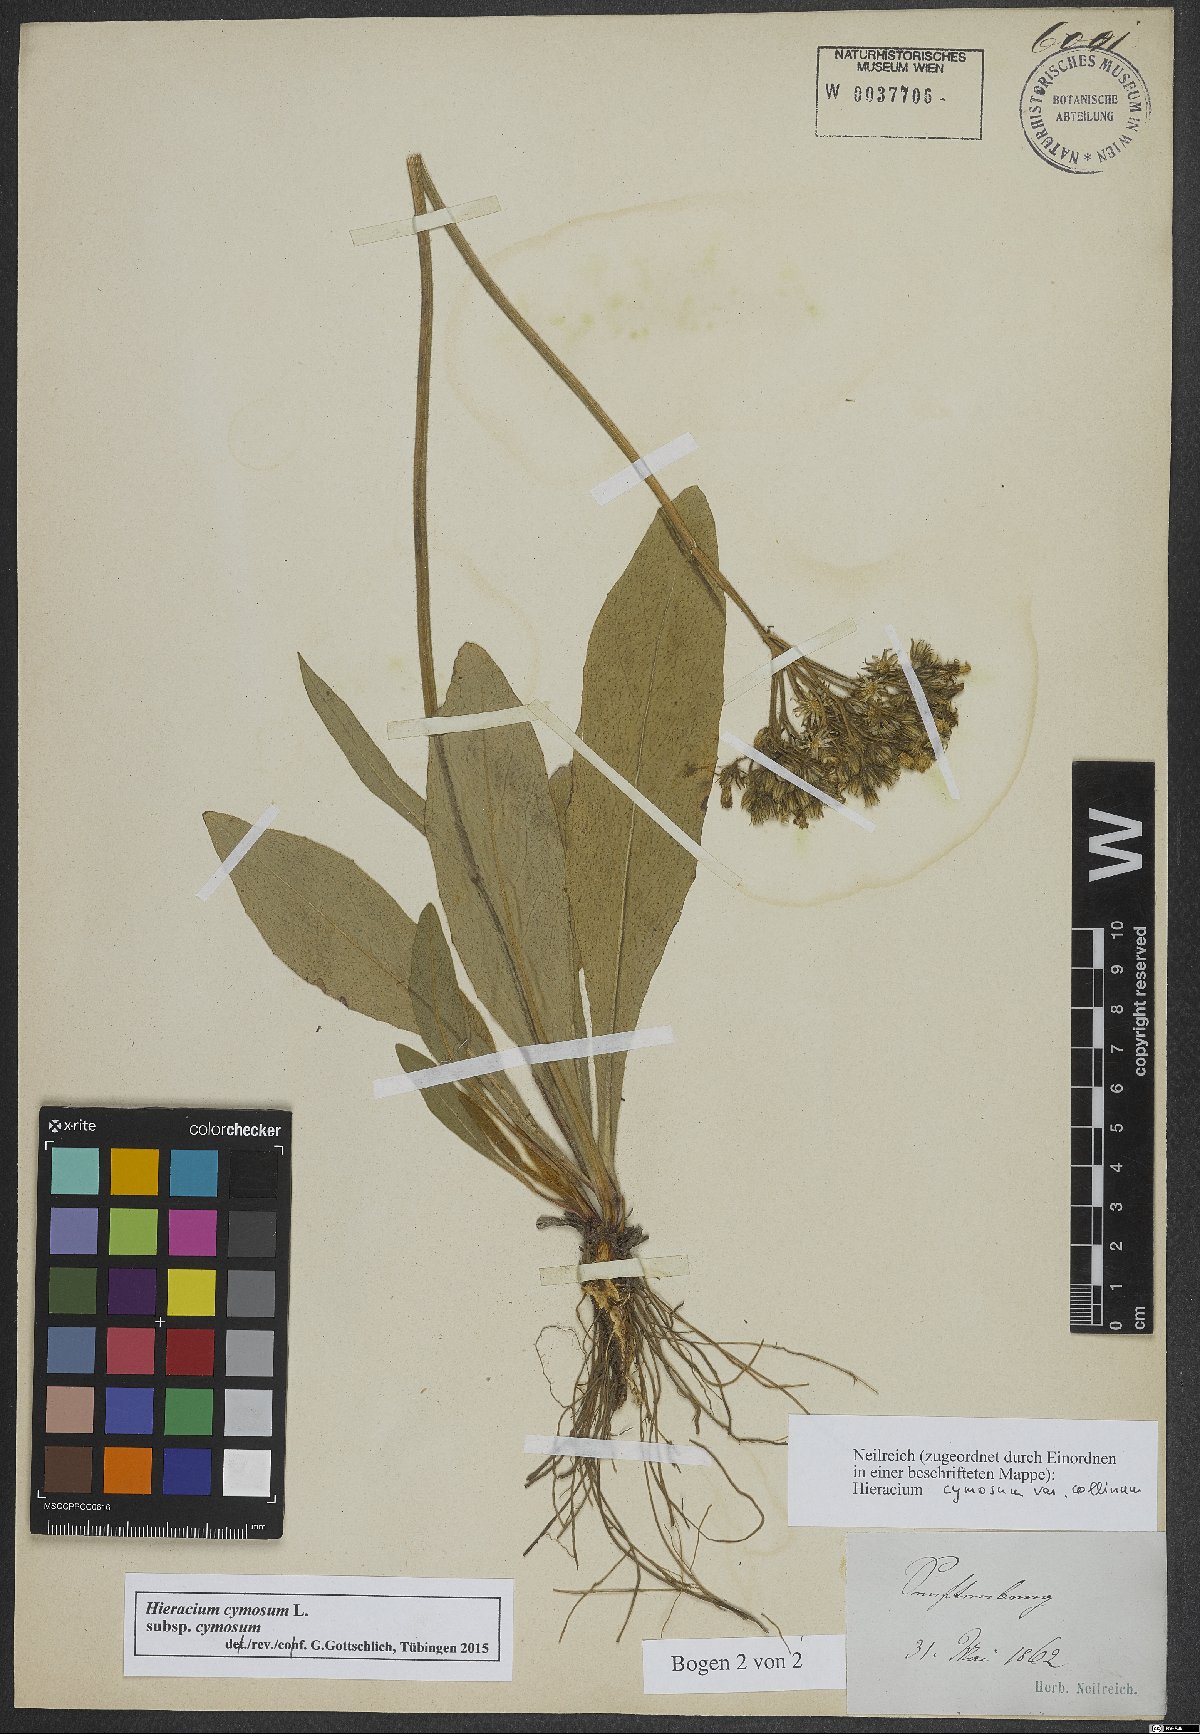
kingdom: Plantae
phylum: Tracheophyta
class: Magnoliopsida
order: Asterales
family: Asteraceae
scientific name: Asteraceae
